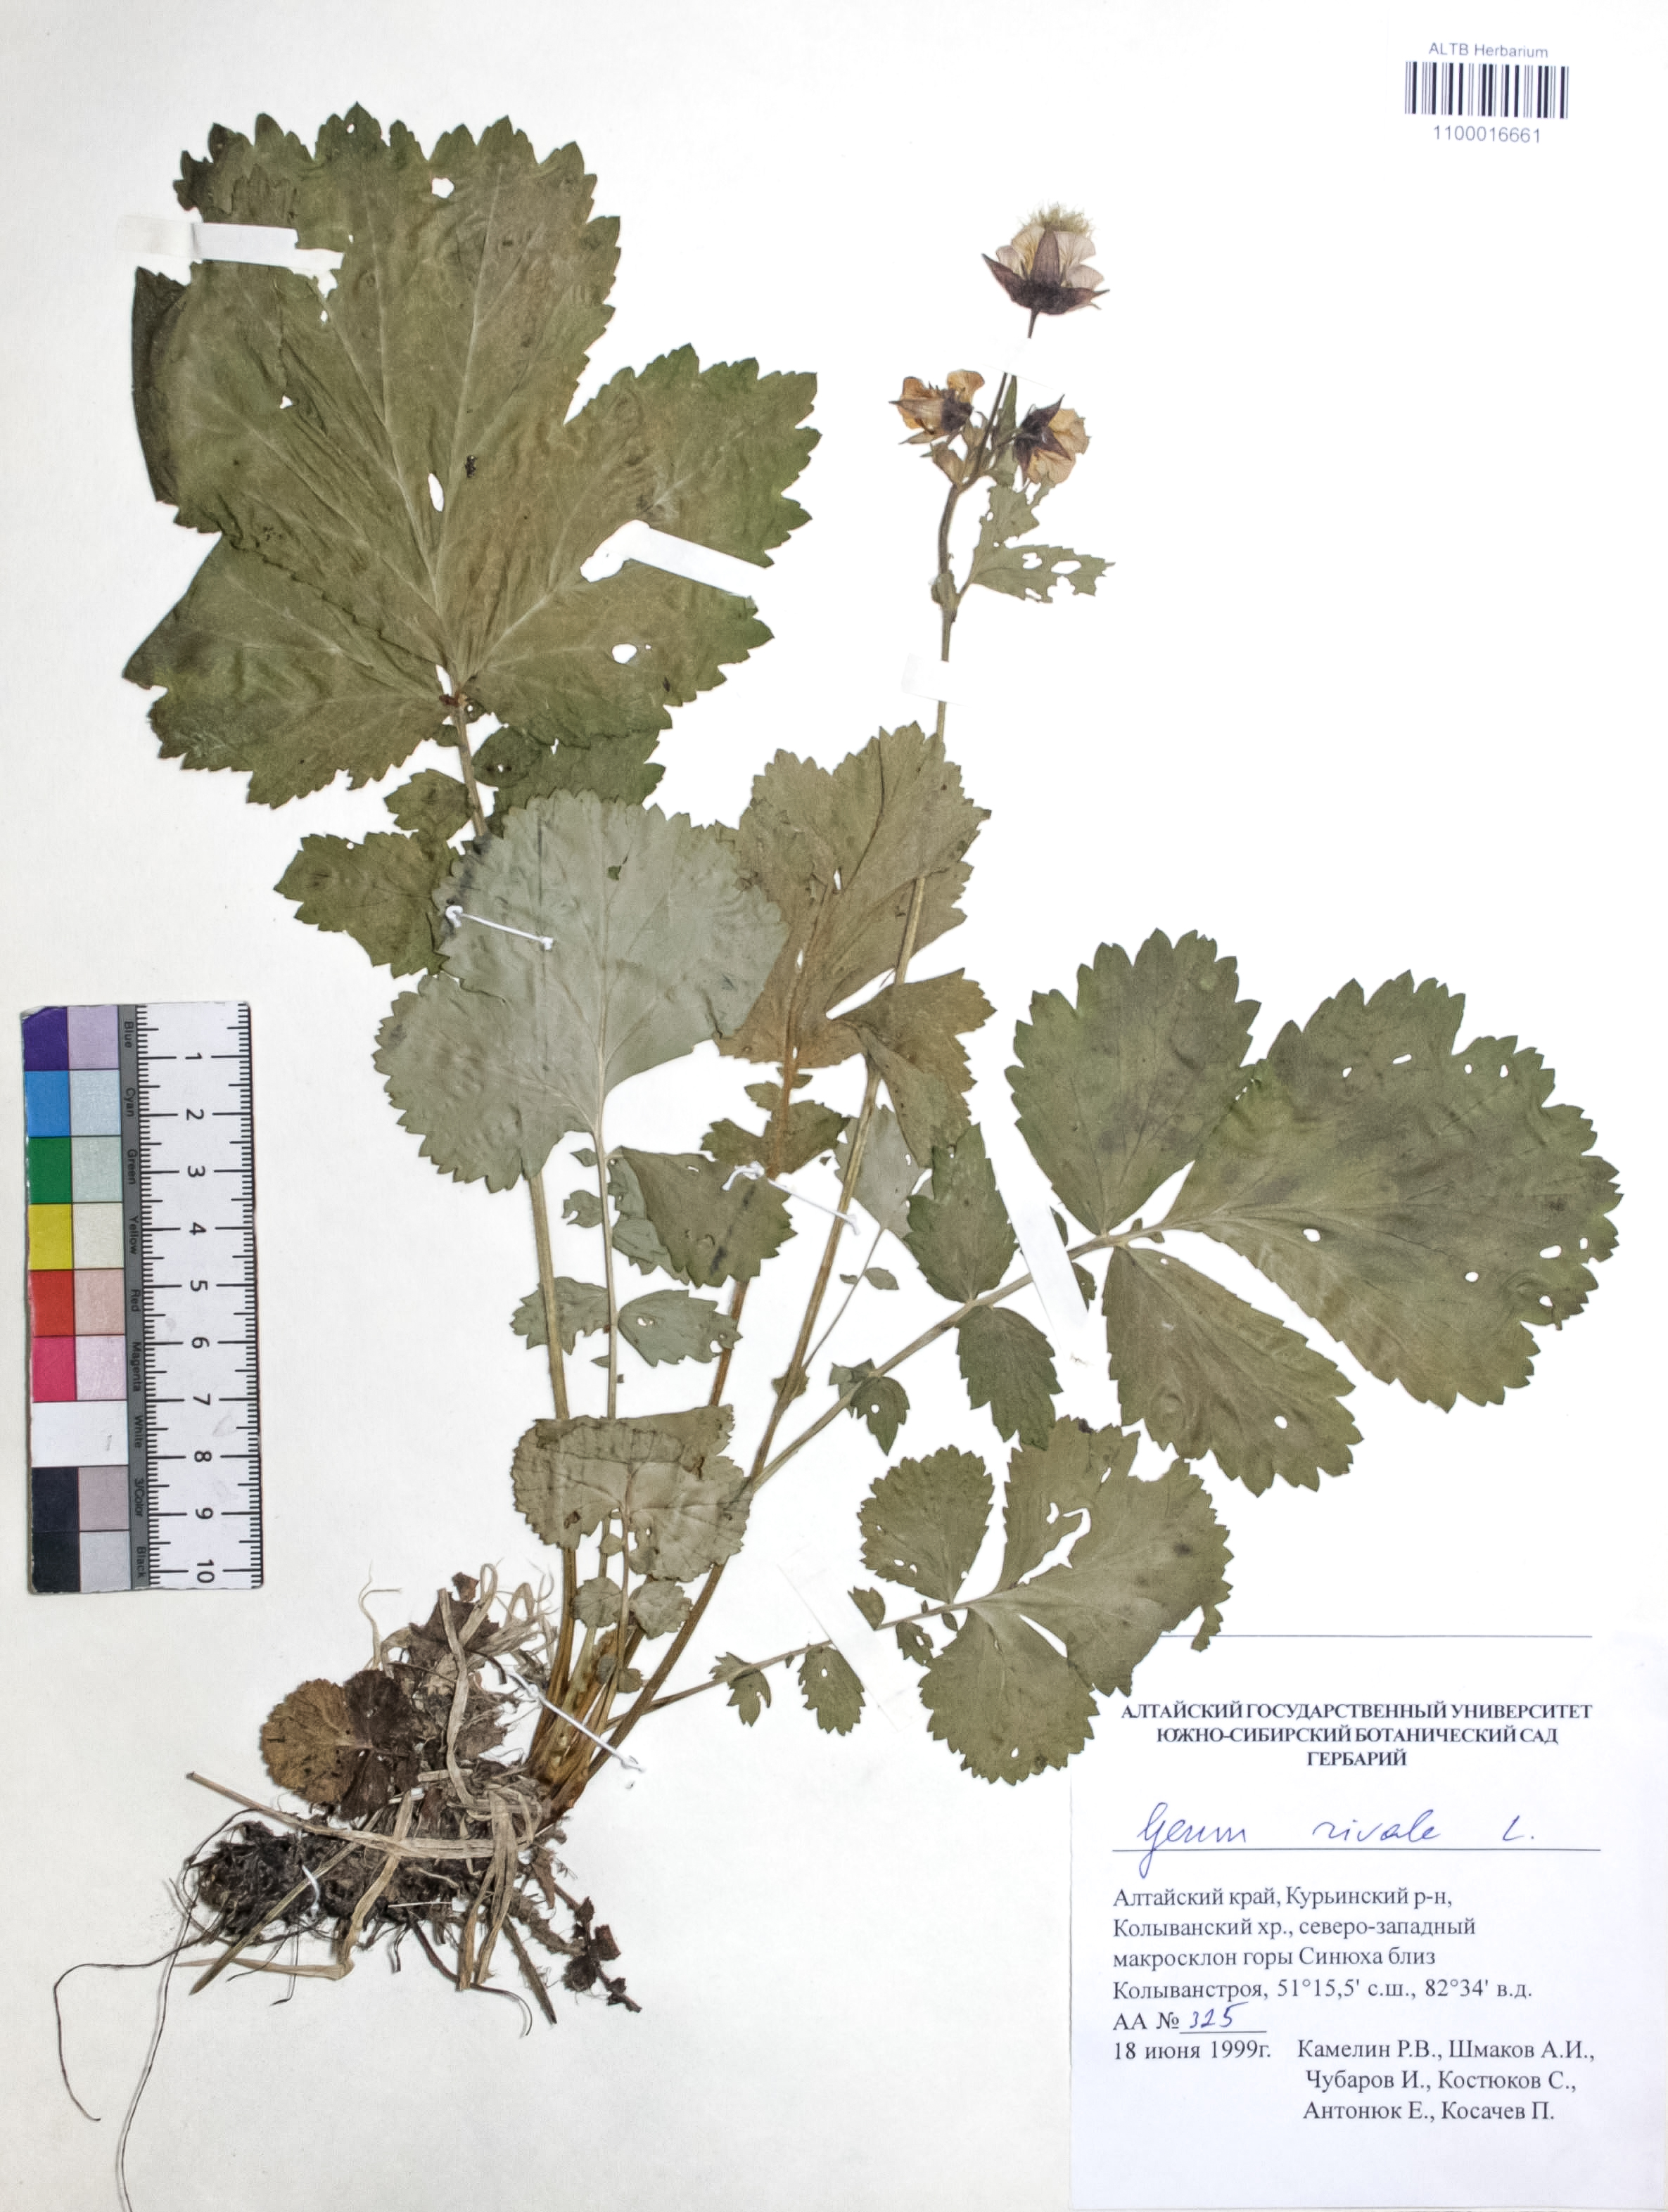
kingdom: Plantae
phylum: Tracheophyta
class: Magnoliopsida
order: Rosales
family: Rosaceae
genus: Geum
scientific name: Geum rivale
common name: Water avens
